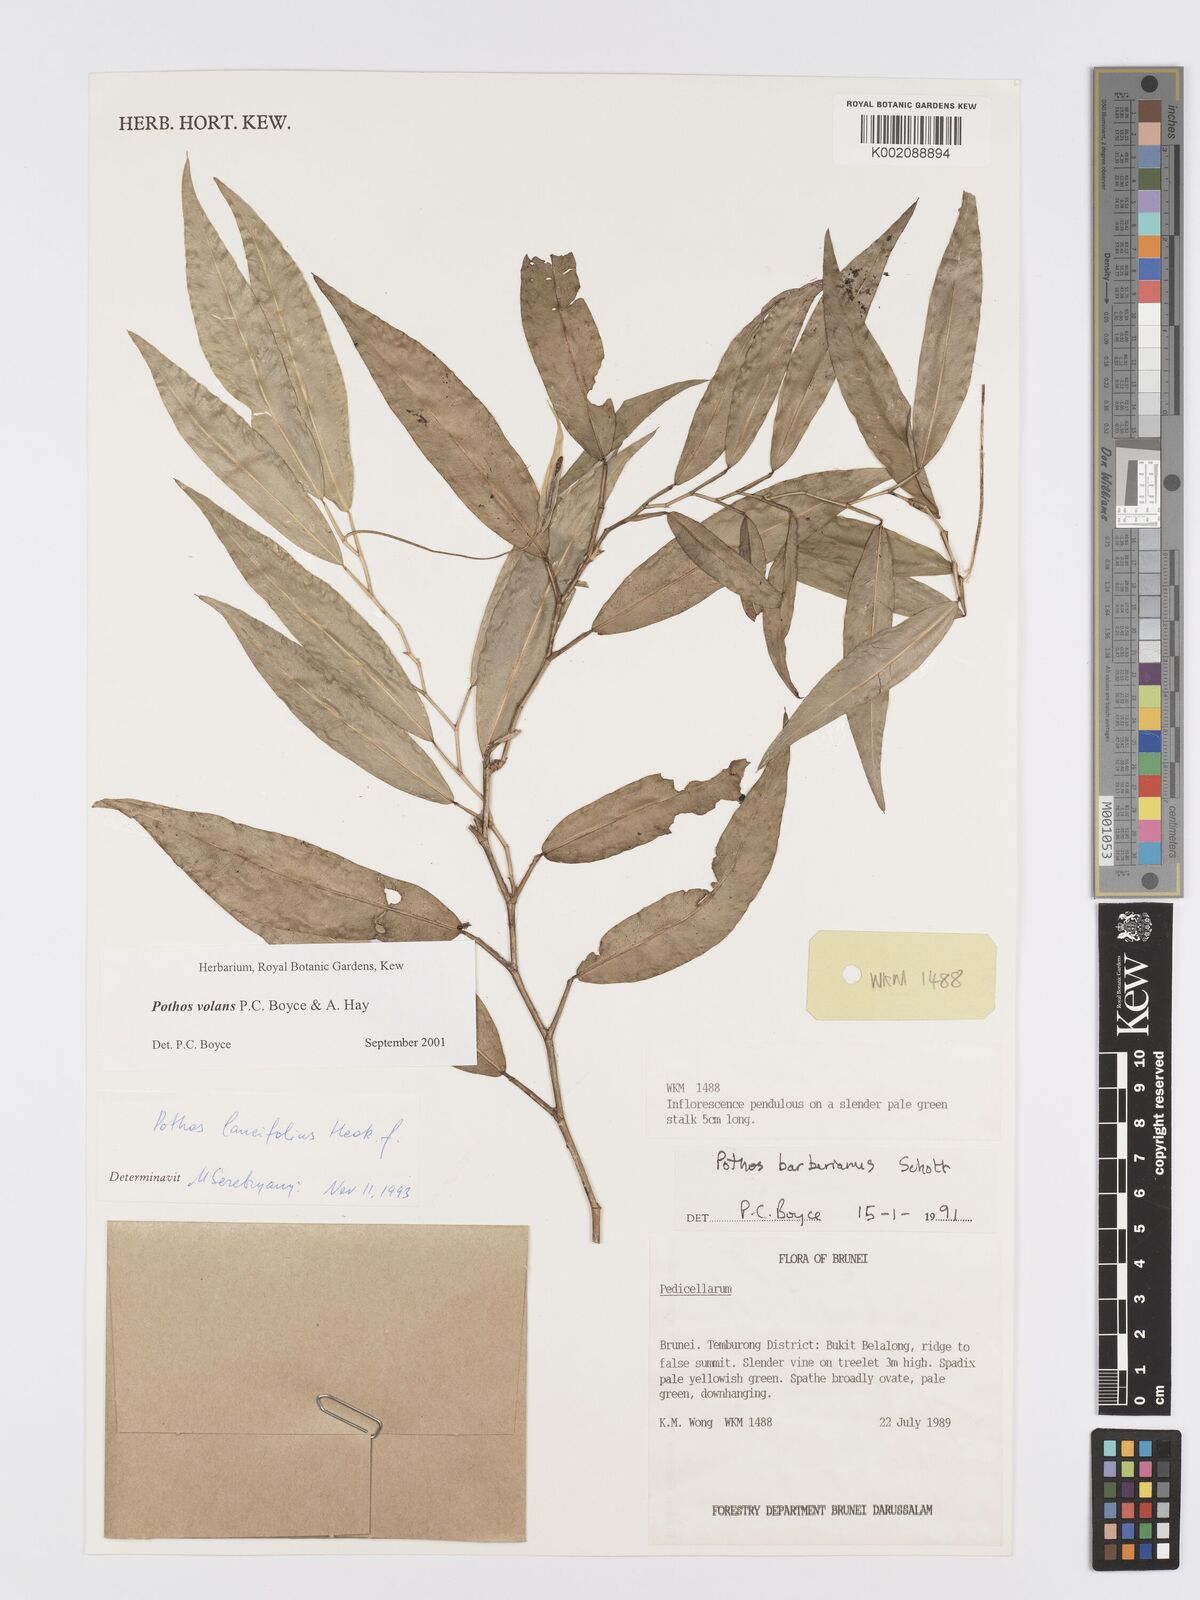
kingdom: Plantae
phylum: Tracheophyta
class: Liliopsida
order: Alismatales
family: Araceae
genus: Pothos
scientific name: Pothos volans
